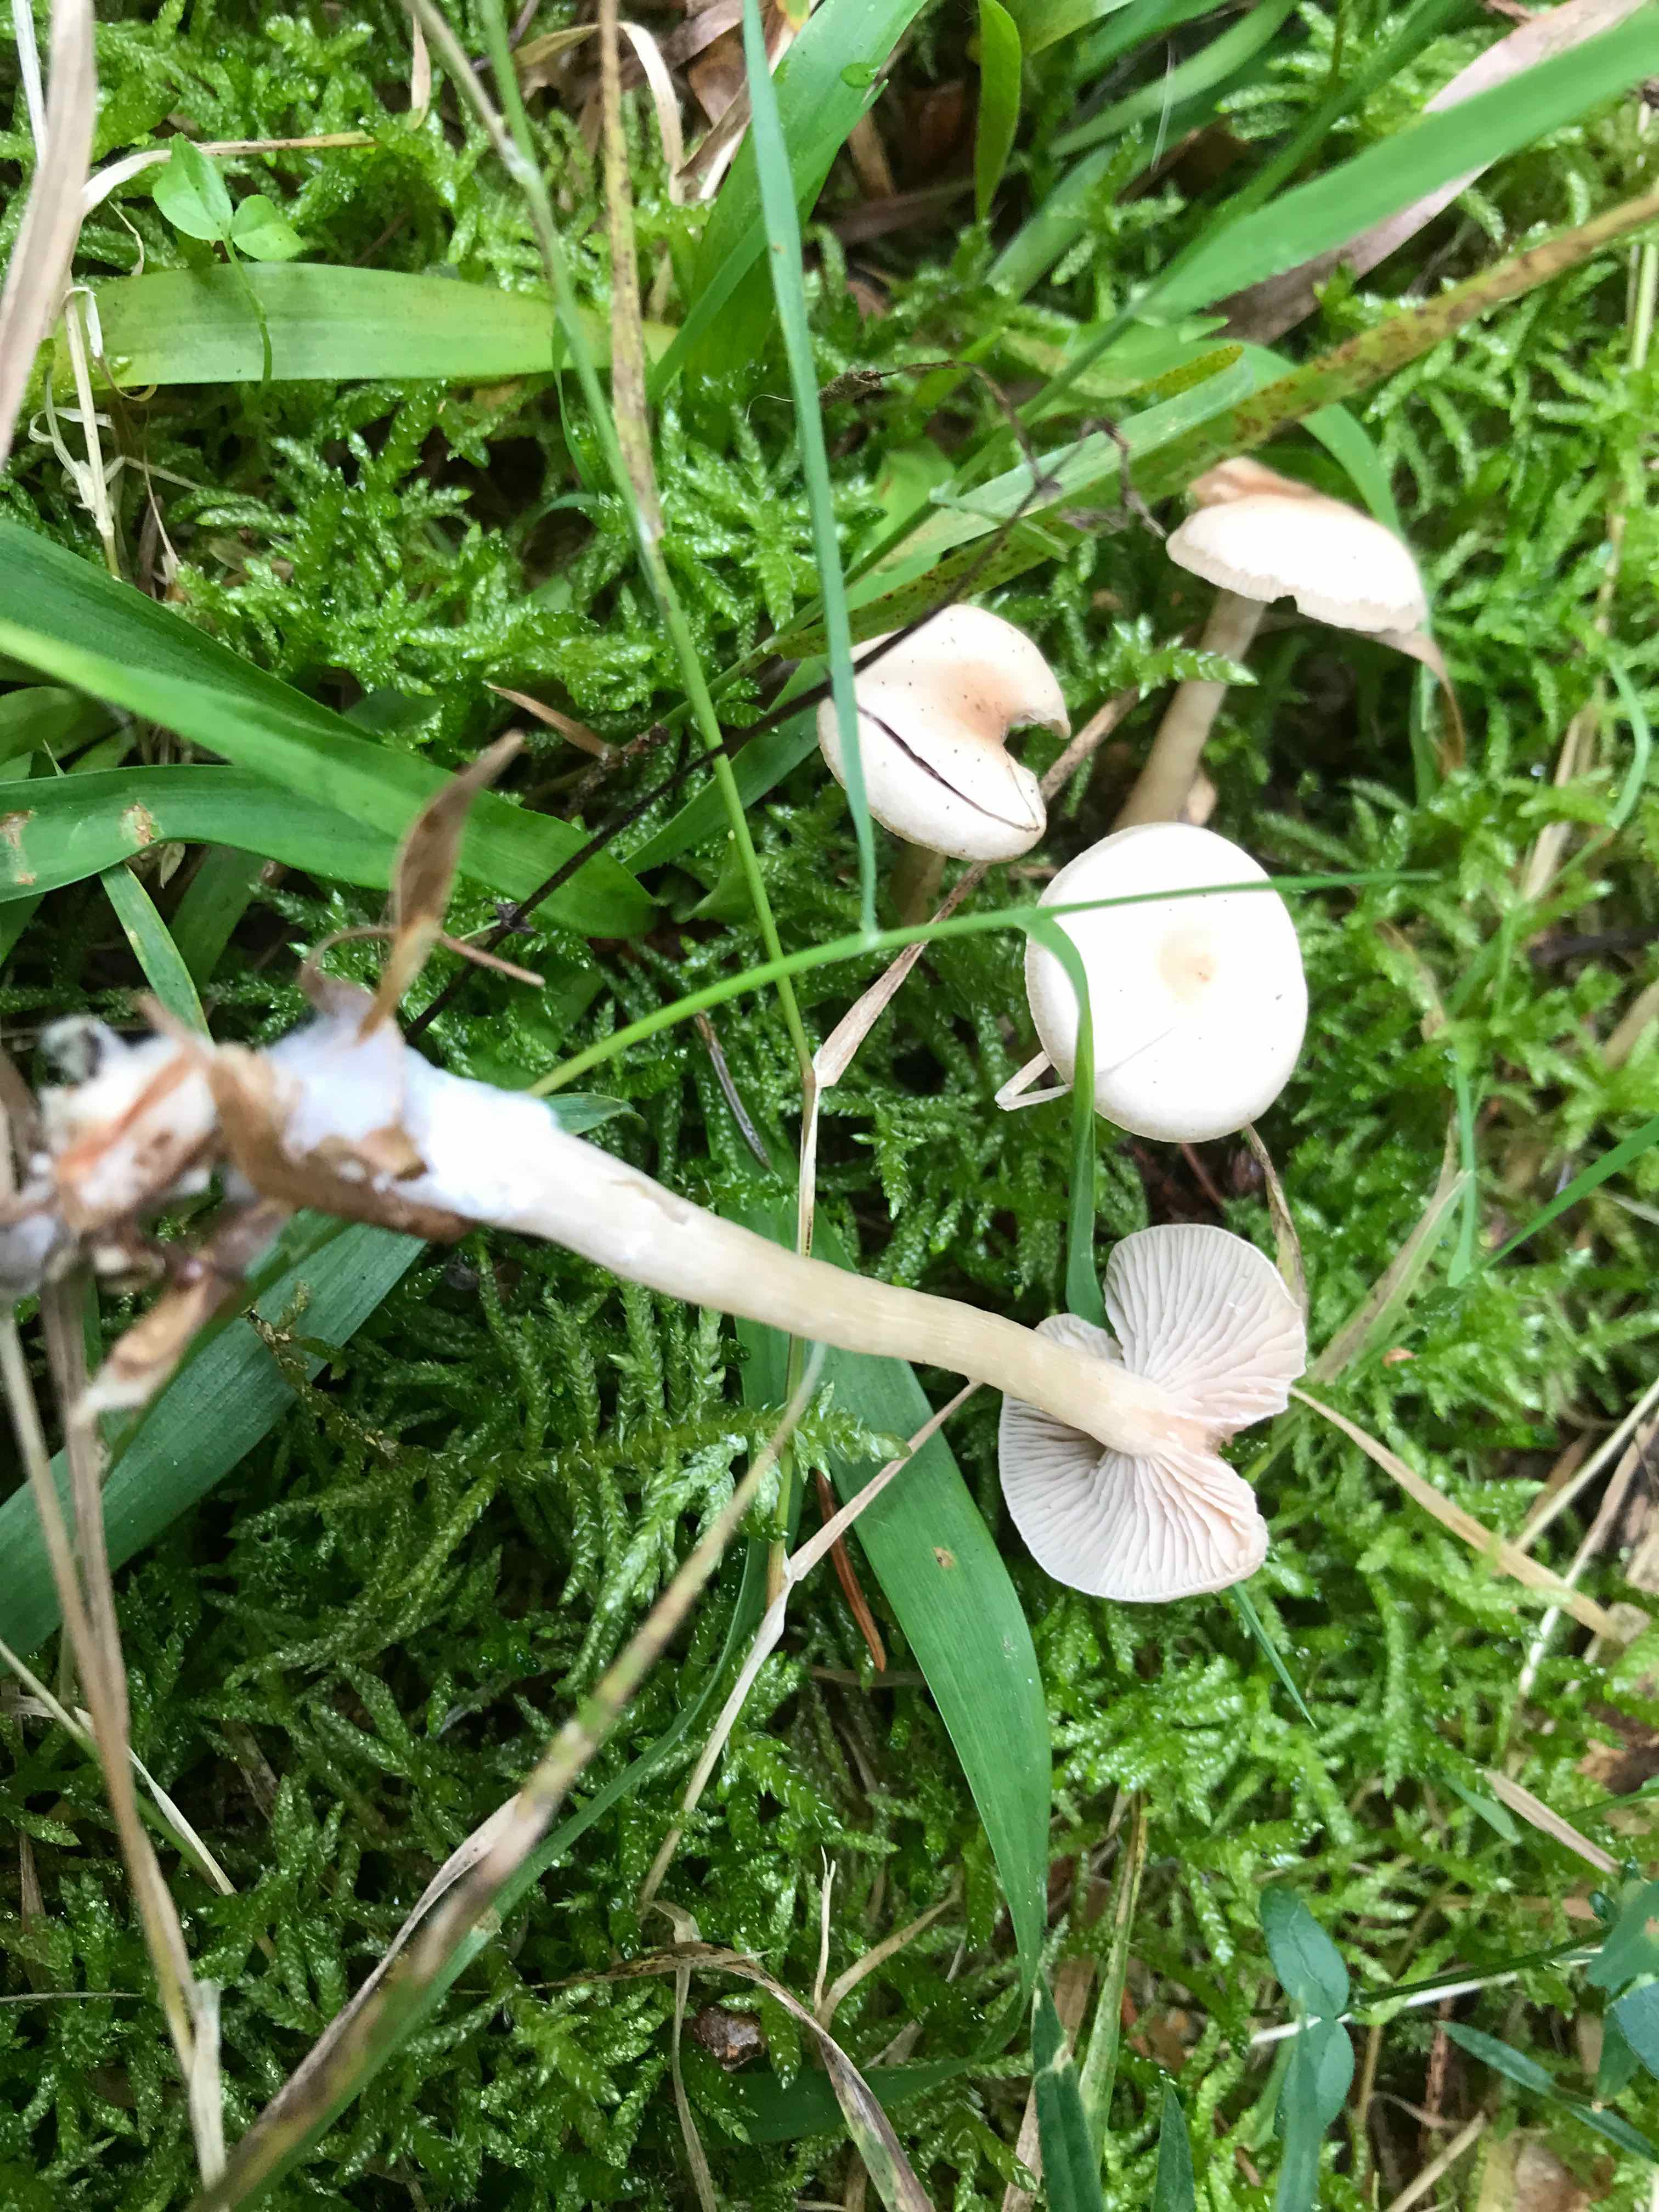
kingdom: Fungi
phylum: Basidiomycota
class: Agaricomycetes
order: Agaricales
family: Tricholomataceae
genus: Clitocybe
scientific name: Clitocybe fragrans
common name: vellugtende tragthat
